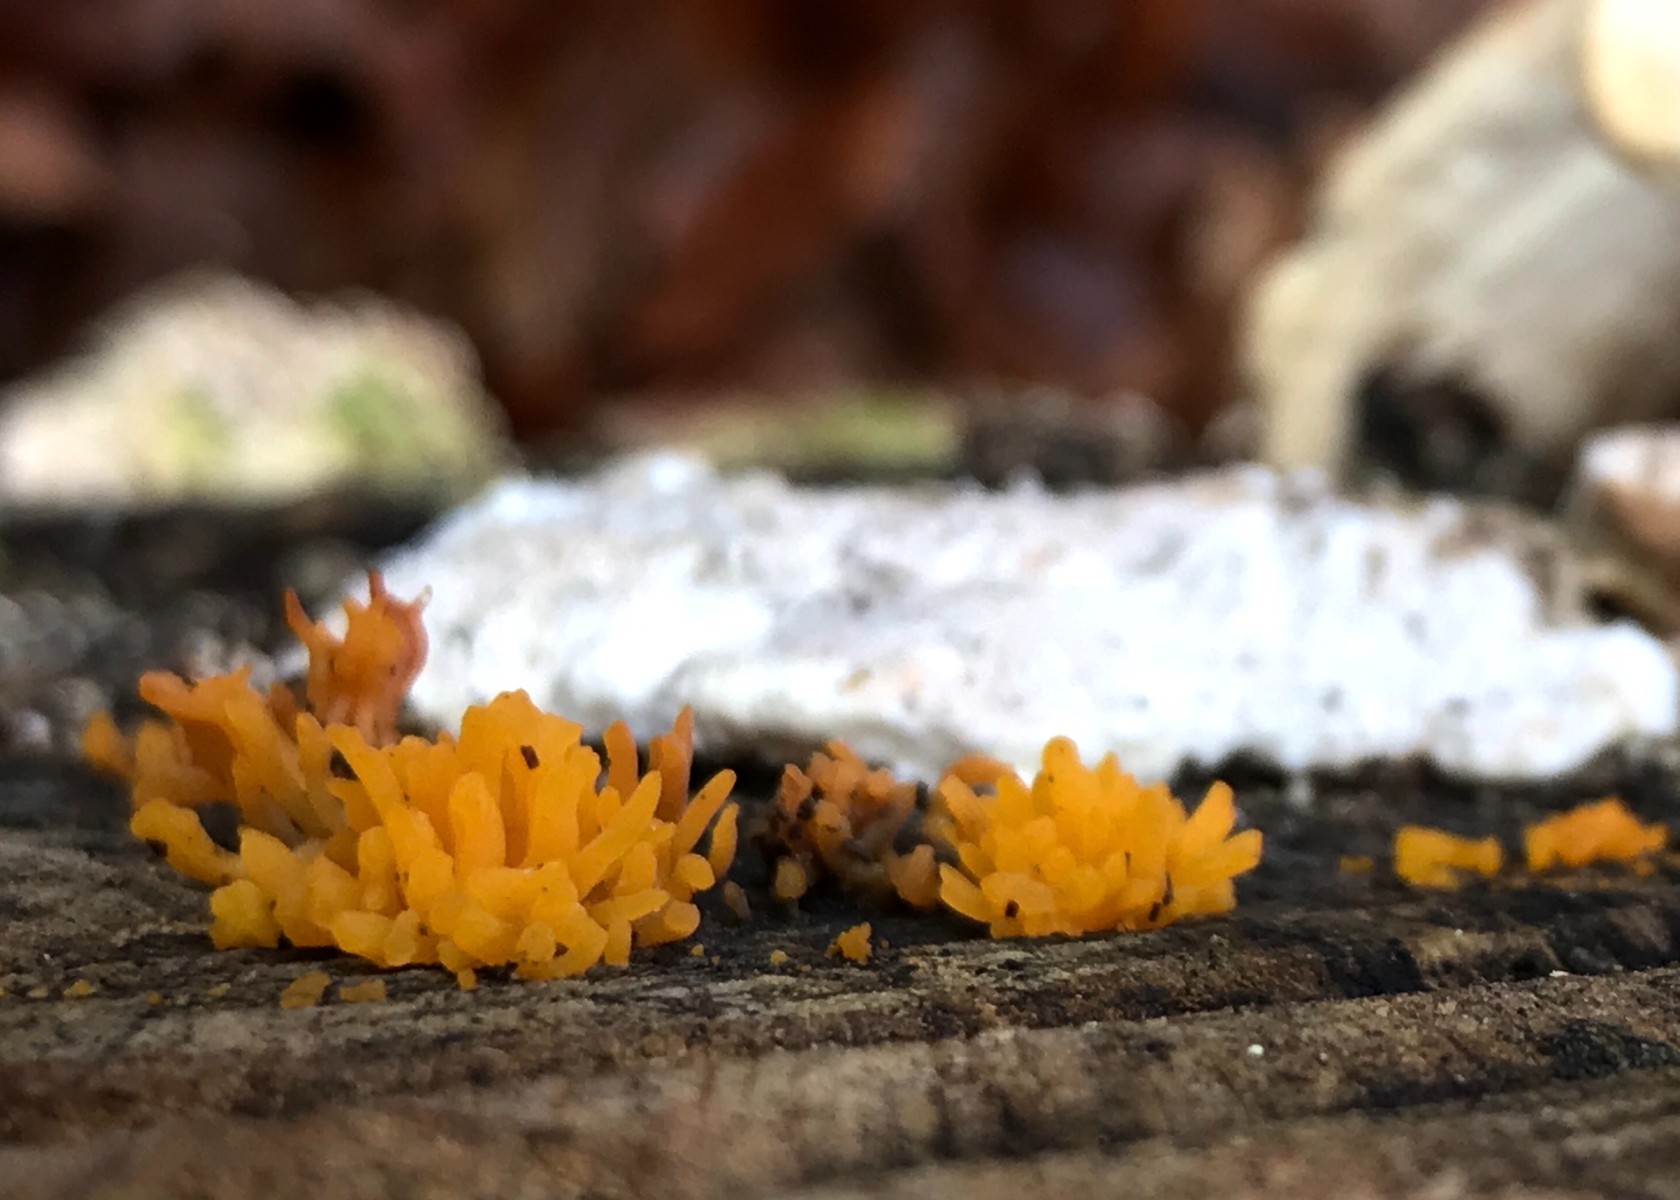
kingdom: Fungi
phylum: Basidiomycota
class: Dacrymycetes
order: Dacrymycetales
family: Dacrymycetaceae
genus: Calocera
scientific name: Calocera cornea
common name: liden guldgaffel
